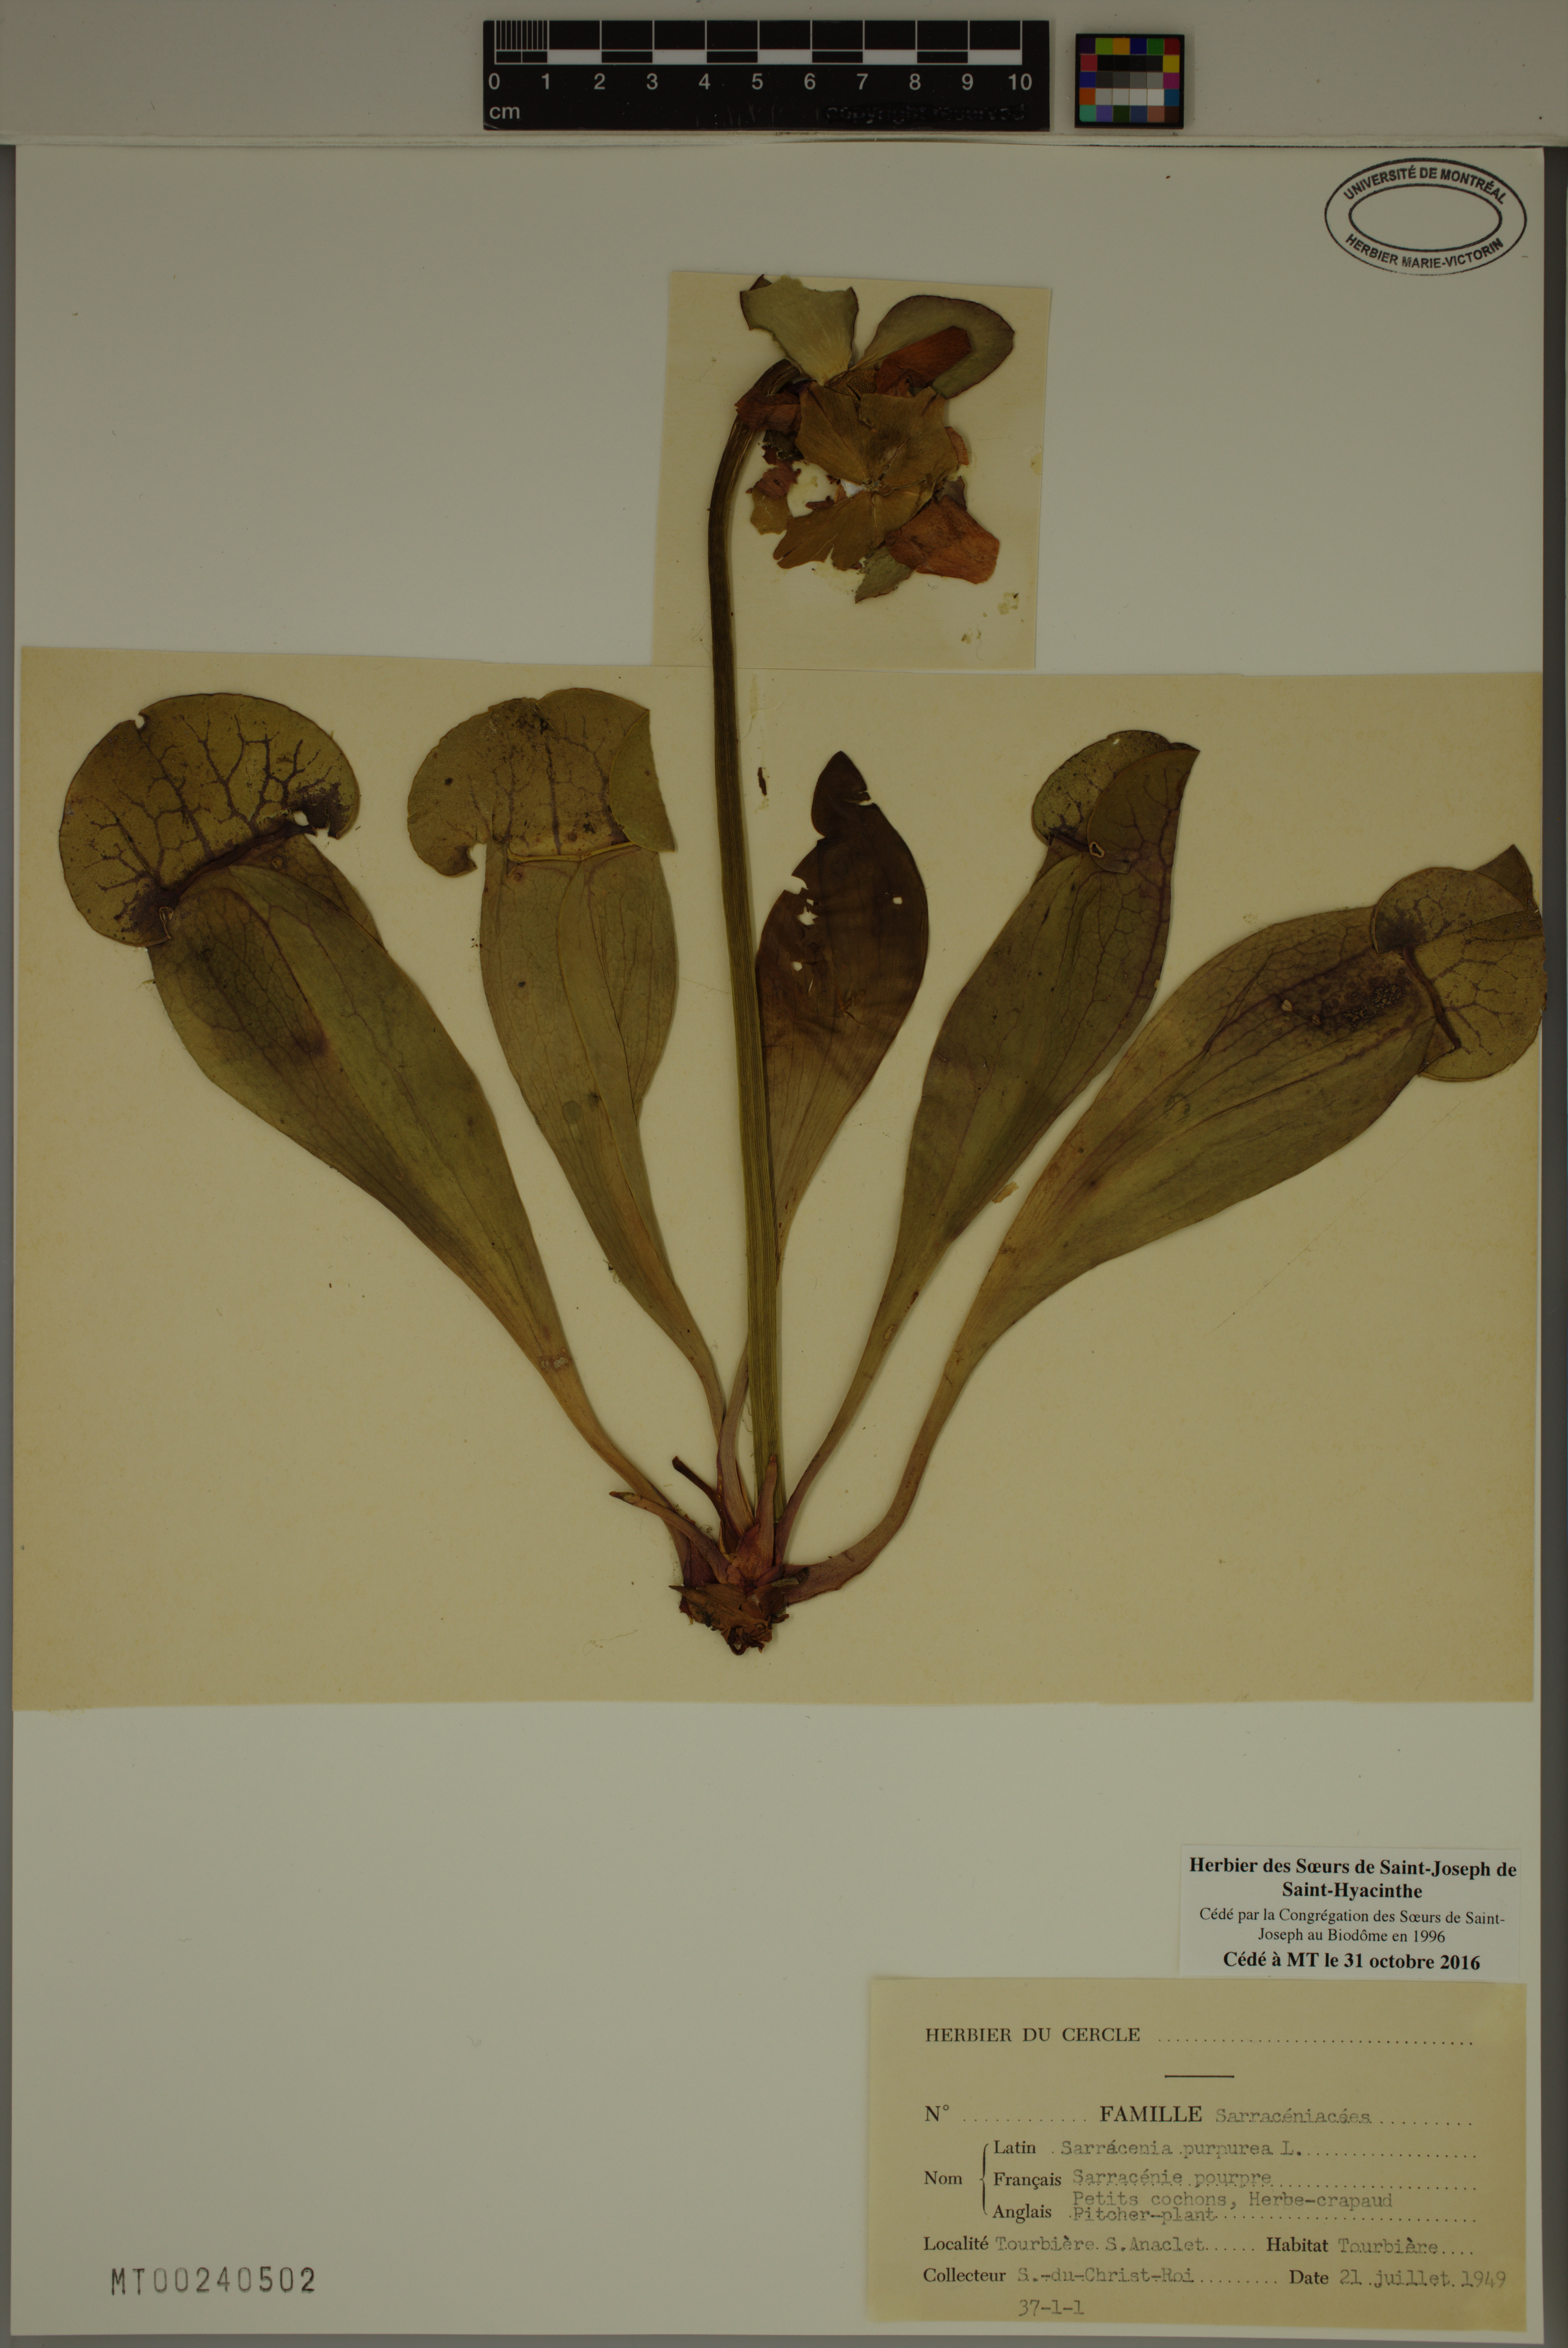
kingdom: Plantae
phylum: Tracheophyta
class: Magnoliopsida
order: Ericales
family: Sarraceniaceae
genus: Sarracenia
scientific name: Sarracenia purpurea
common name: Pitcherplant
